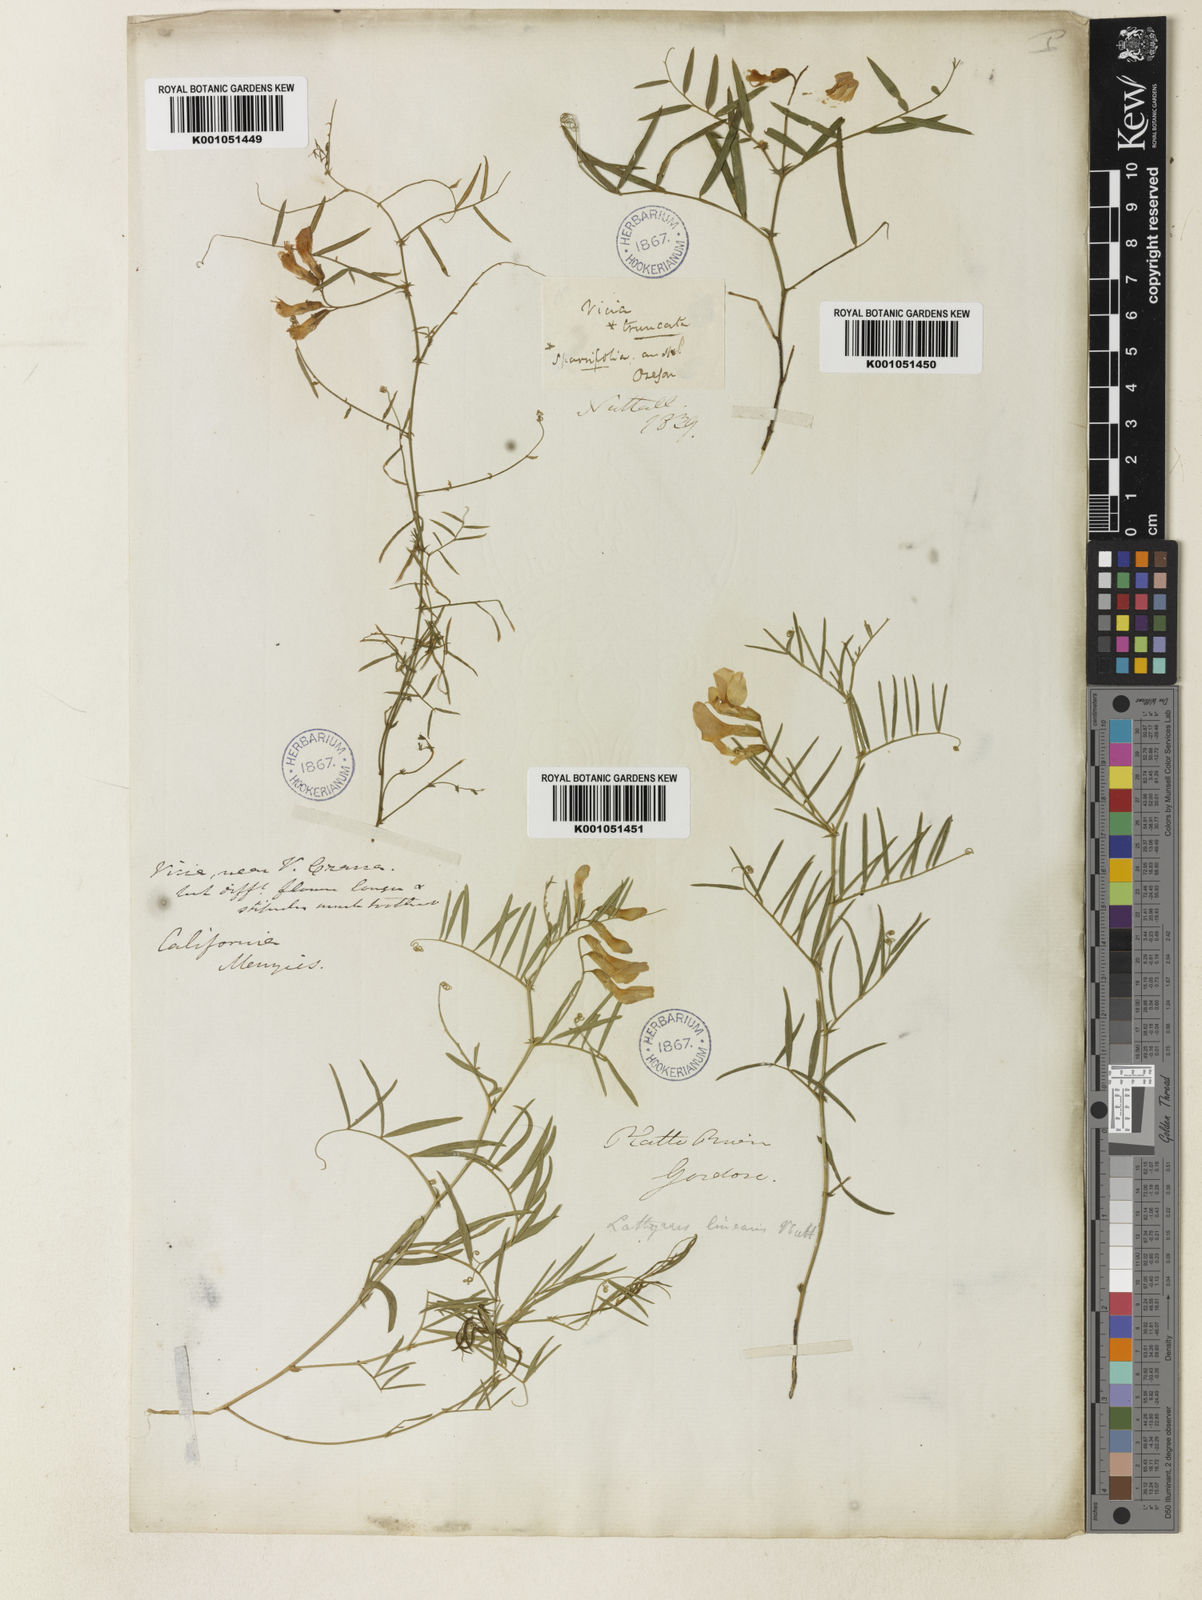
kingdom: Plantae
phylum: Tracheophyta
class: Magnoliopsida
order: Fabales
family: Fabaceae
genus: Vicia
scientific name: Vicia americana
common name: American vetch
